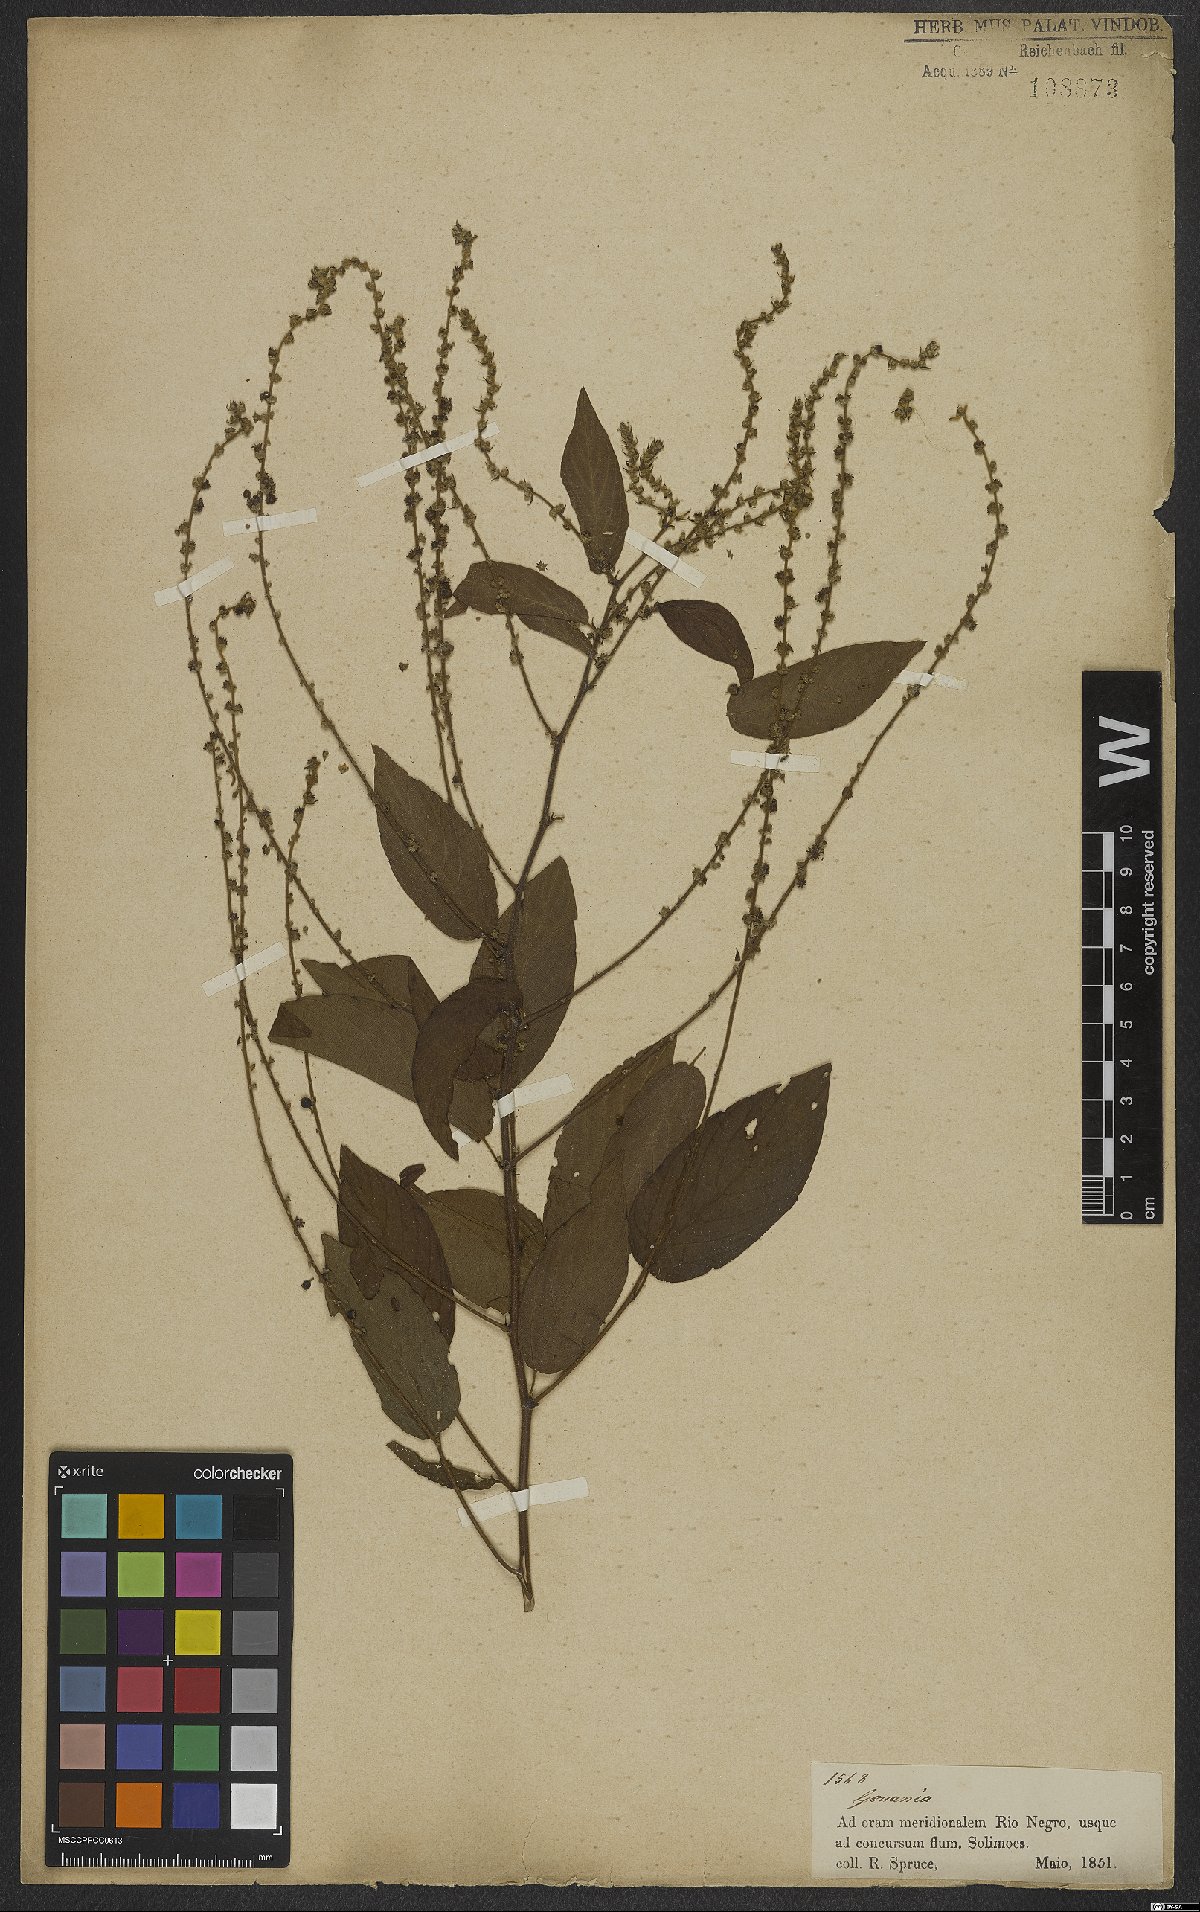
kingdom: Plantae
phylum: Tracheophyta
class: Magnoliopsida
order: Rosales
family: Rhamnaceae
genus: Gouania
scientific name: Gouania
